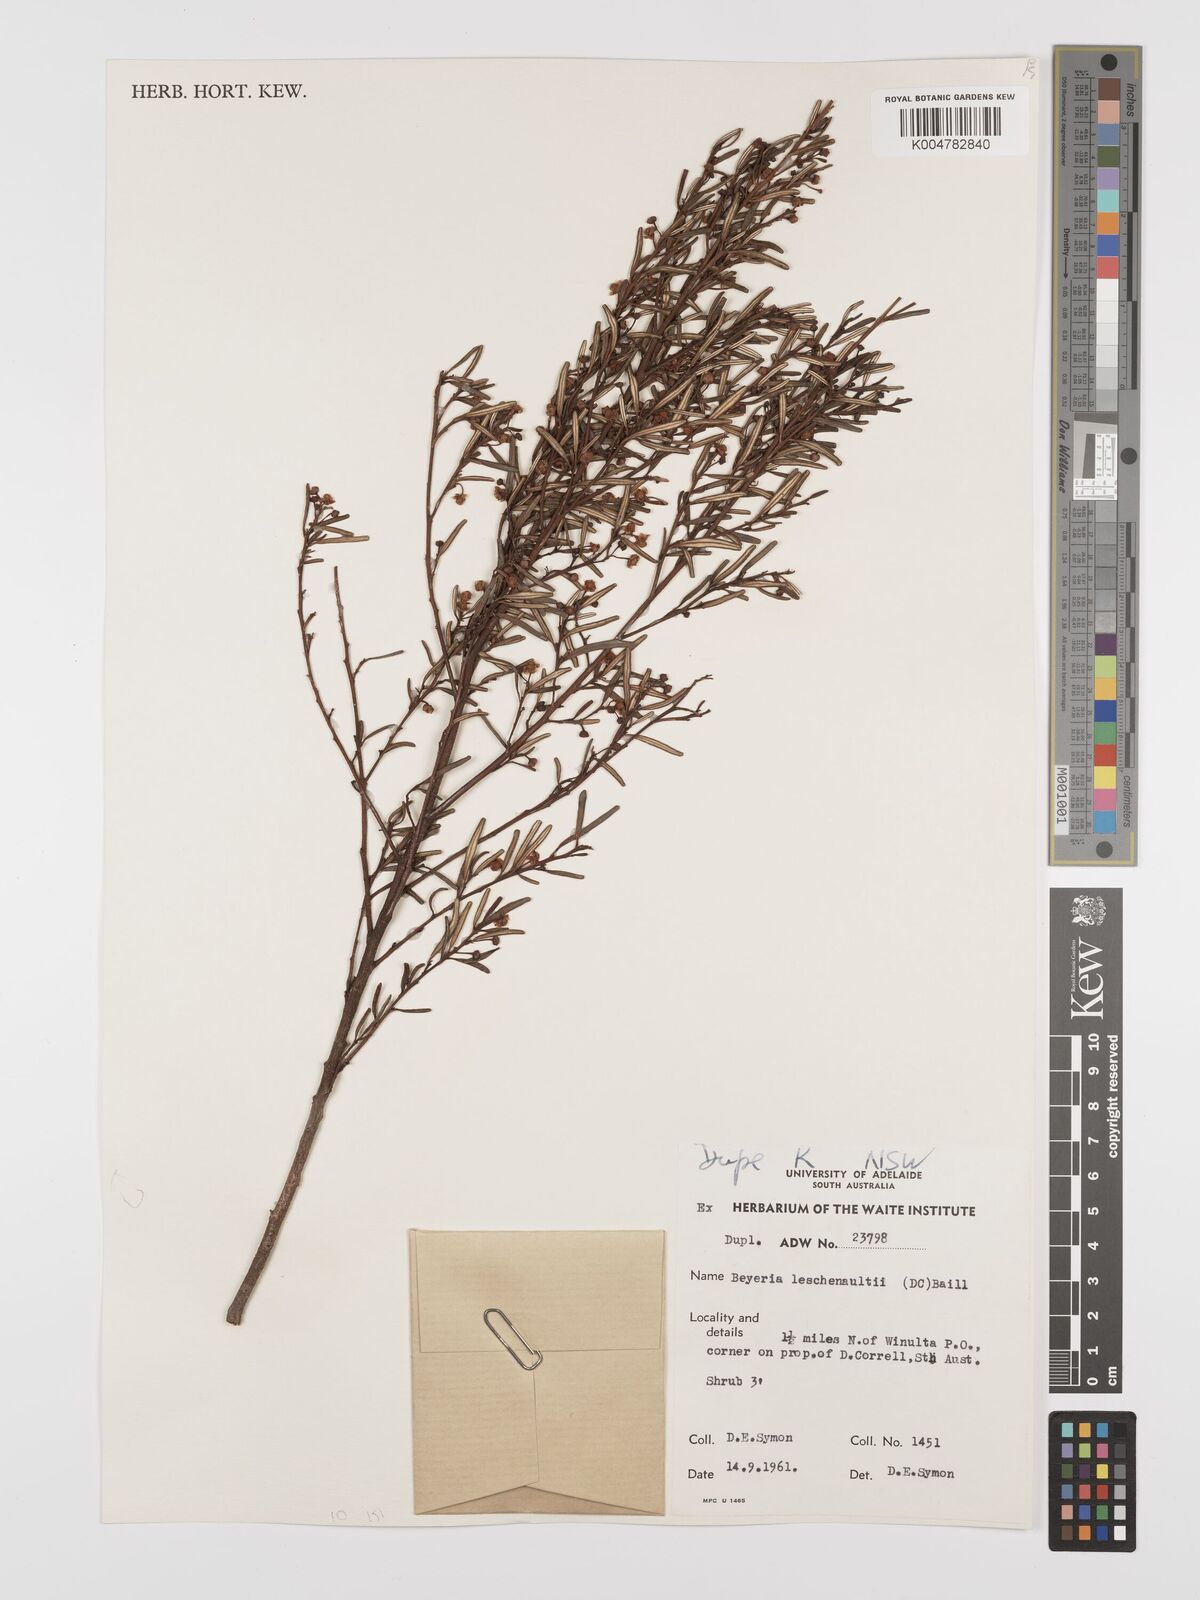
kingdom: Plantae
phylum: Tracheophyta
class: Magnoliopsida
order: Malpighiales
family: Euphorbiaceae
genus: Beyeria
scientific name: Beyeria lechenaultii
